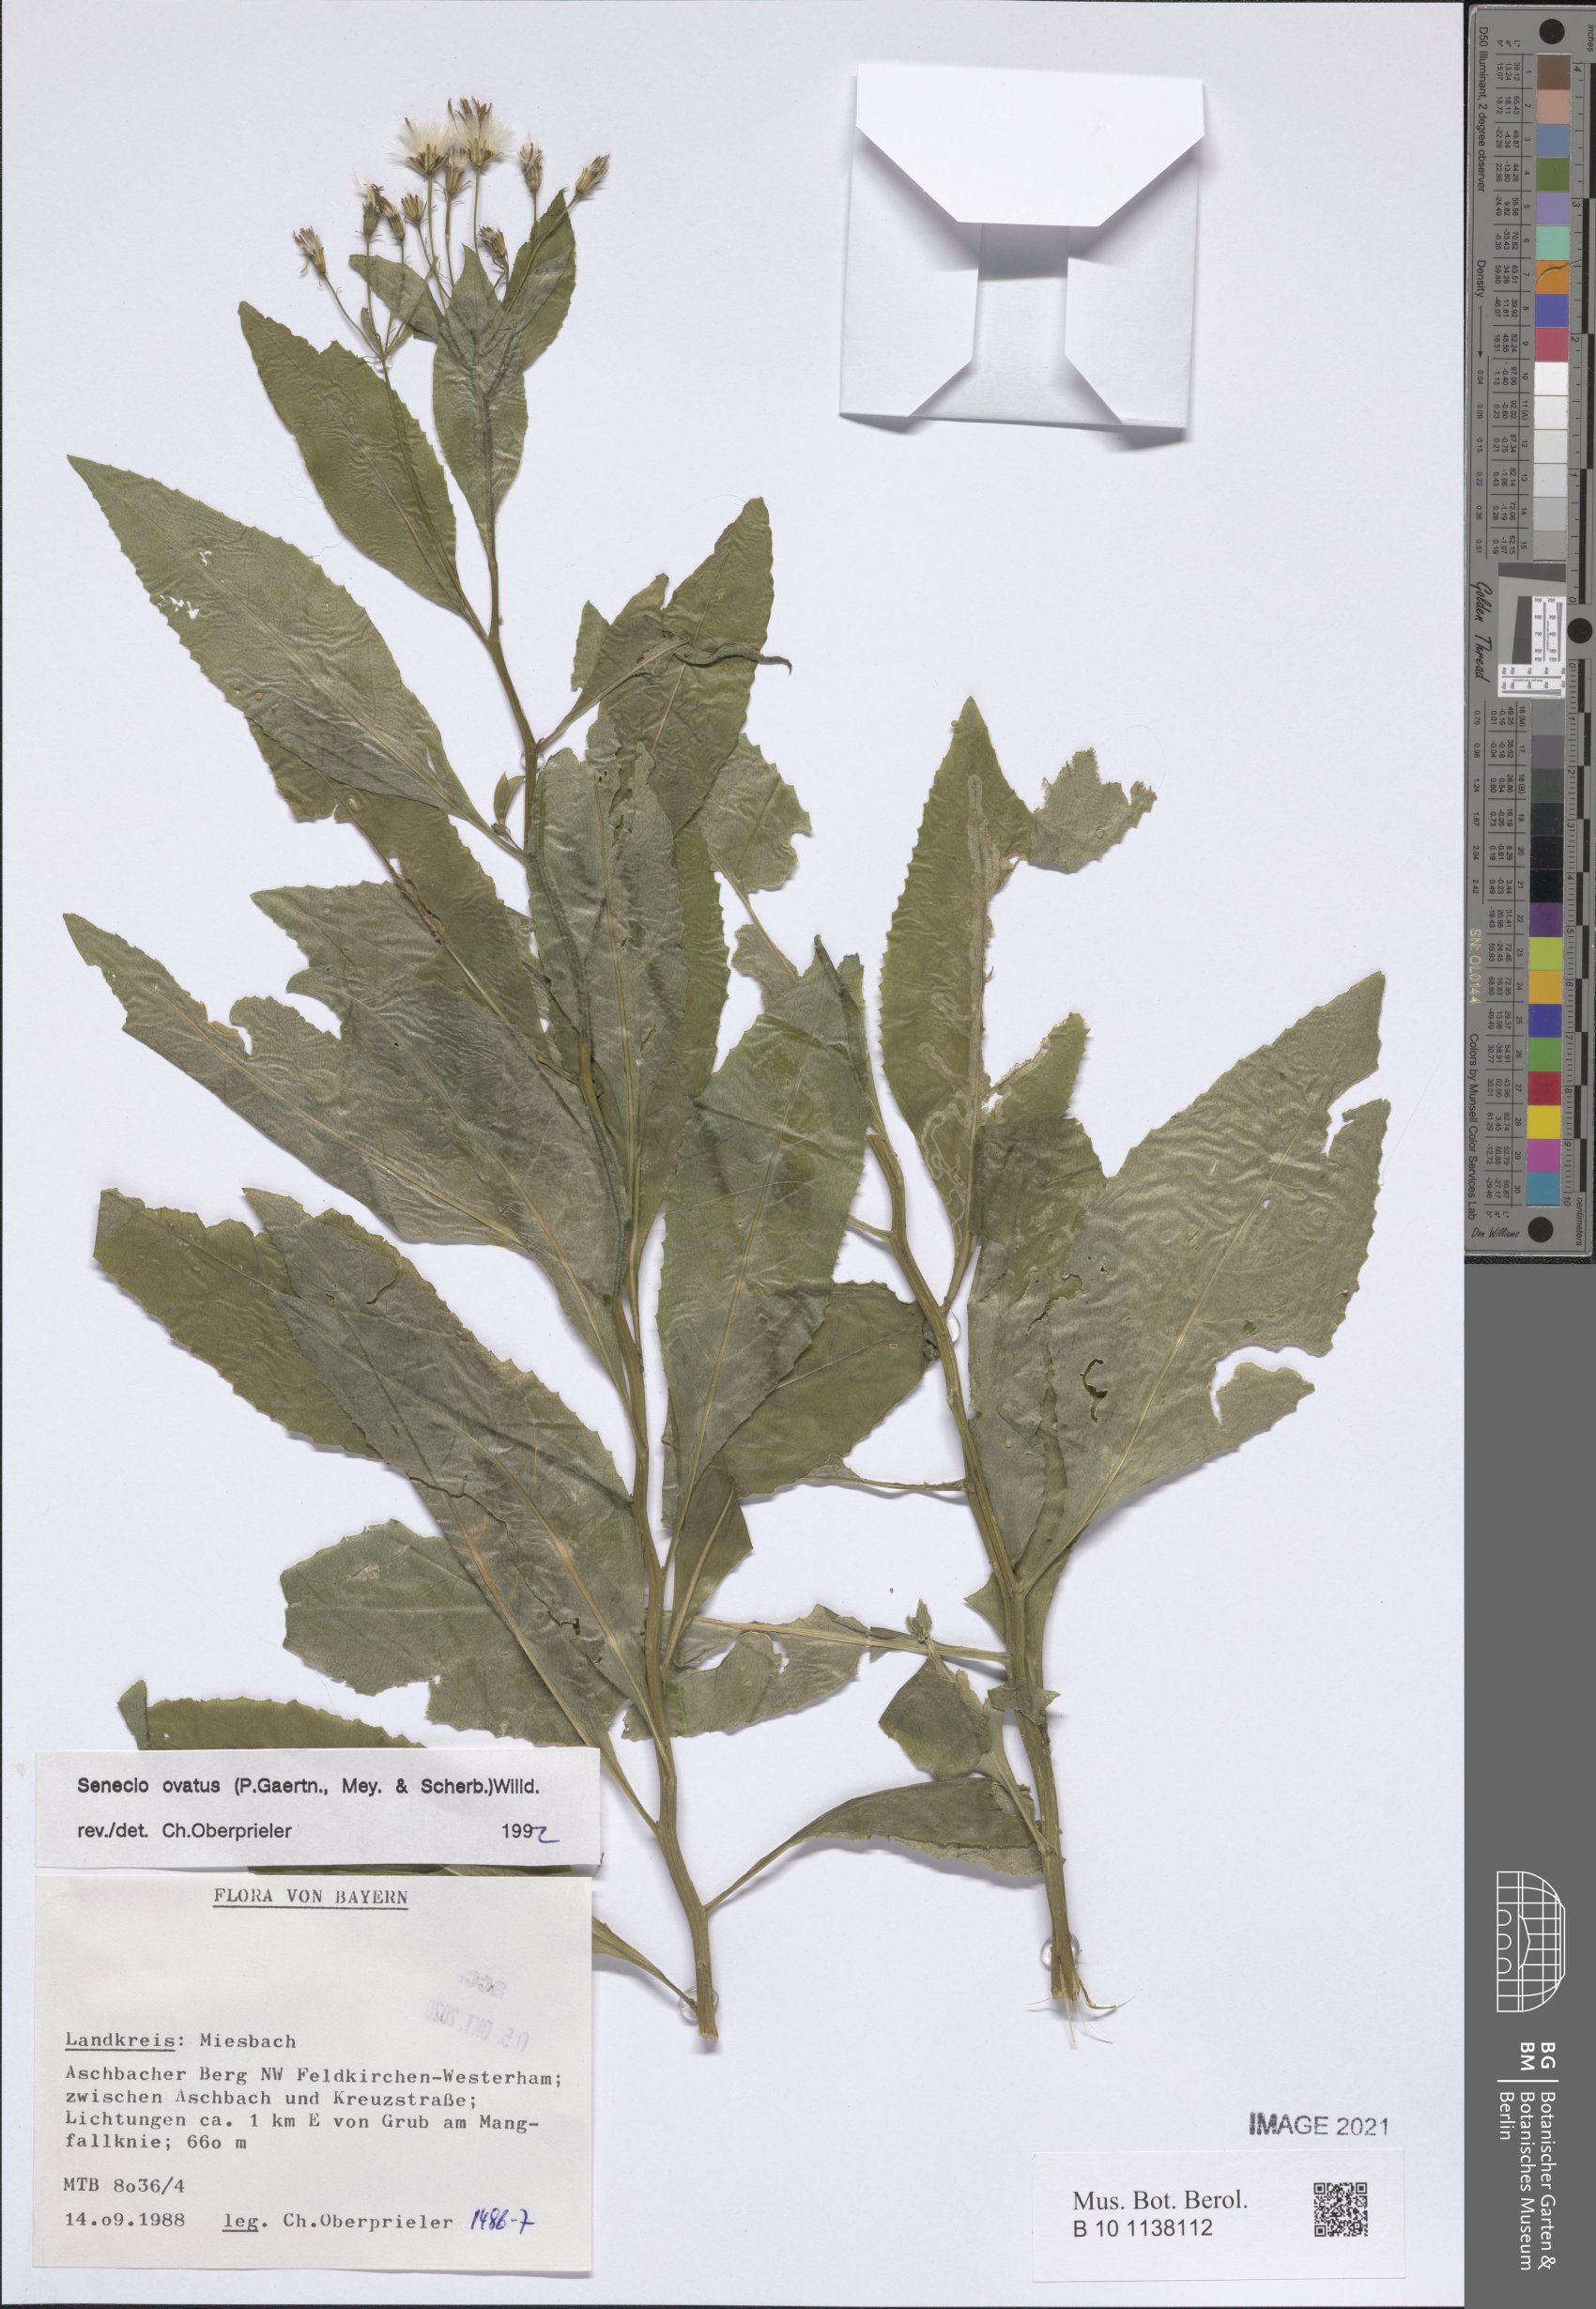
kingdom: Plantae
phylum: Tracheophyta
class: Magnoliopsida
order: Asterales
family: Asteraceae
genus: Senecio
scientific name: Senecio ovatus
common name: Wood ragwort
